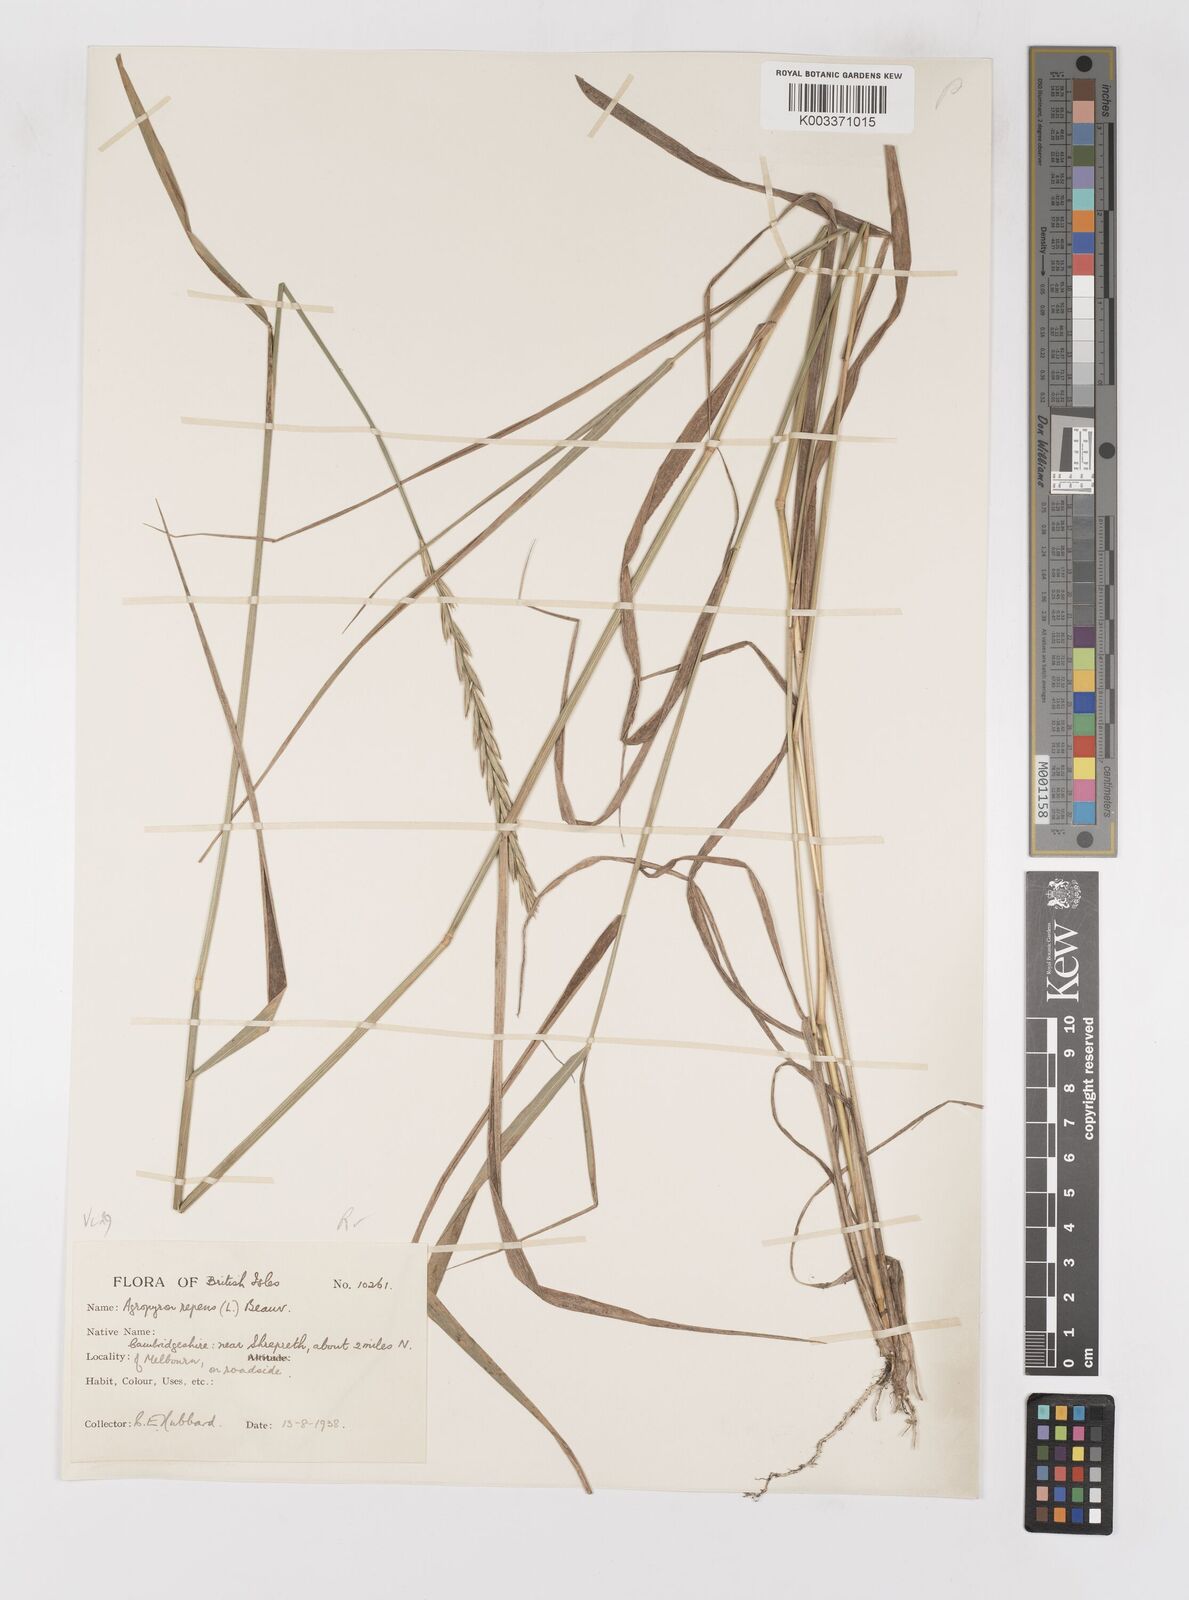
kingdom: Plantae
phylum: Tracheophyta
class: Liliopsida
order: Poales
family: Poaceae
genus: Elymus
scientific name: Elymus repens
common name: Quackgrass
